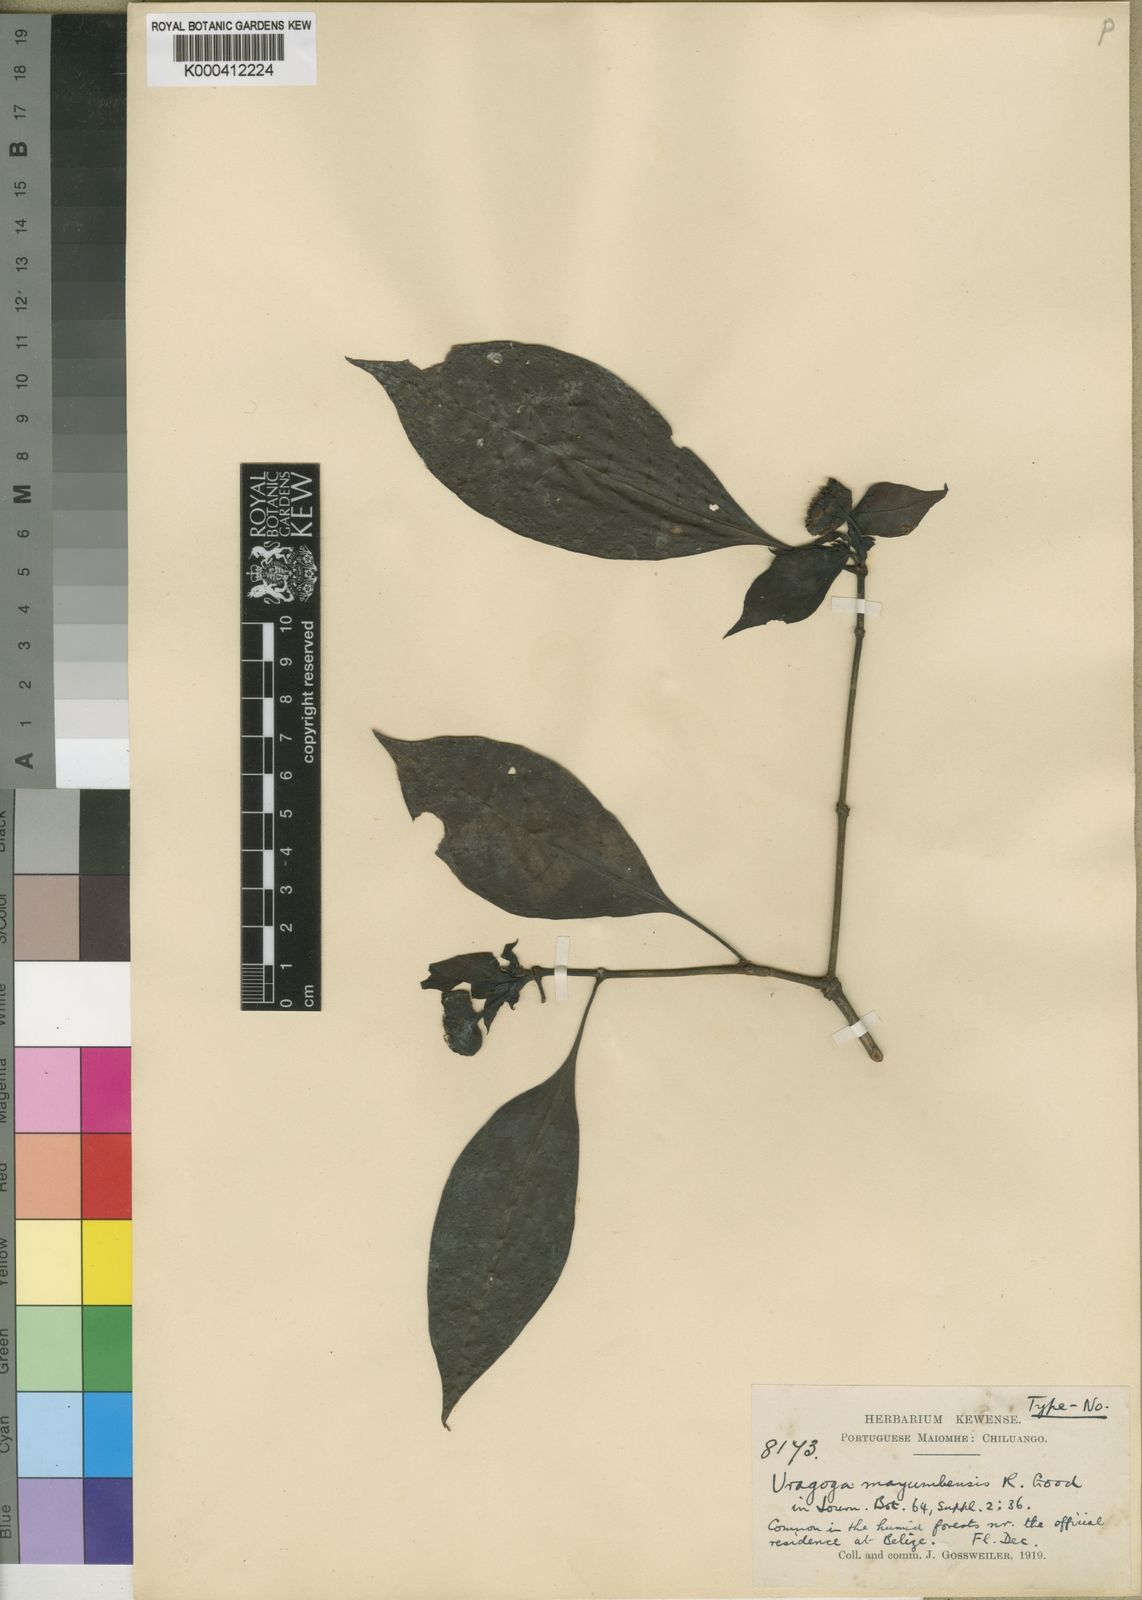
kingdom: Plantae
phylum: Tracheophyta
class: Magnoliopsida
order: Gentianales
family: Rubiaceae
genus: Psychotria
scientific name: Psychotria goodii
